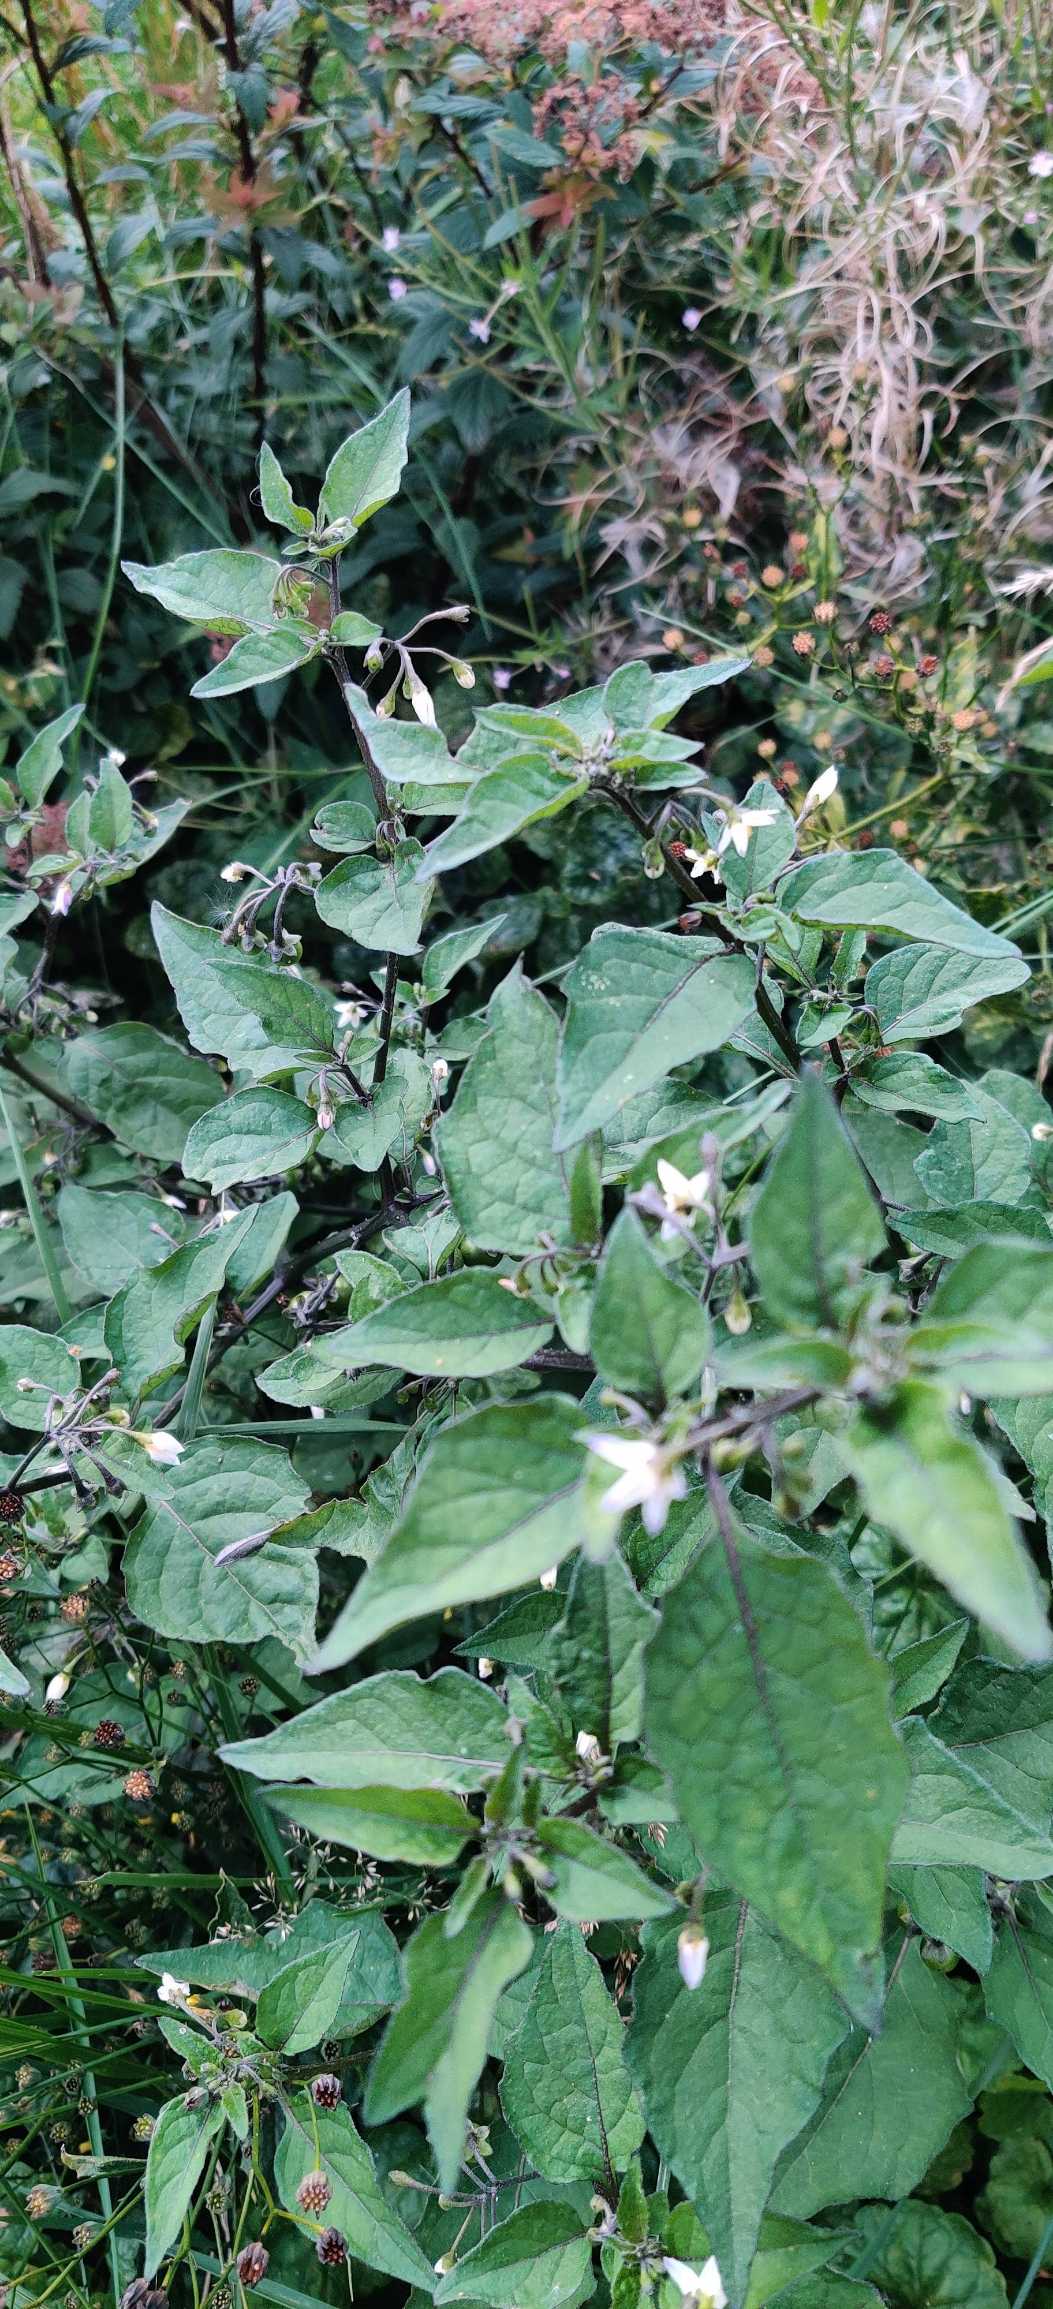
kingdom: Plantae
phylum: Tracheophyta
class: Magnoliopsida
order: Solanales
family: Solanaceae
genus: Solanum
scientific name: Solanum nigrum
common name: Sort natskygge
